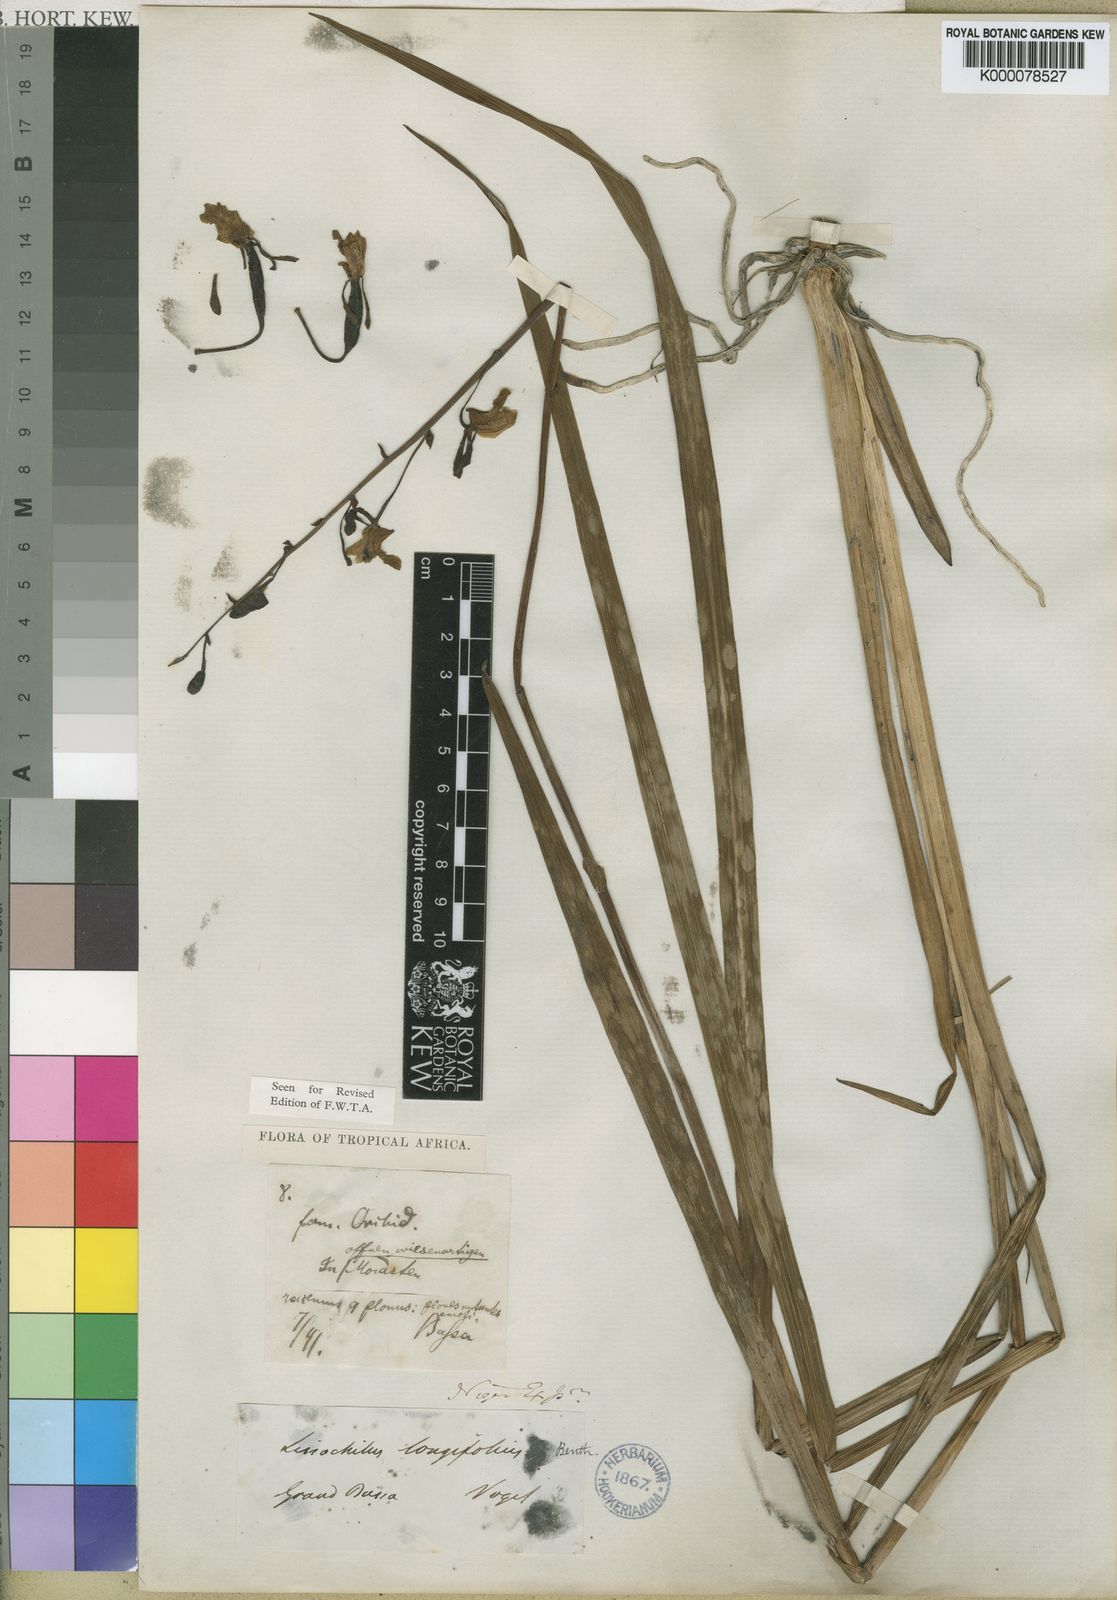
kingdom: Plantae
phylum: Tracheophyta
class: Liliopsida
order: Asparagales
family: Orchidaceae
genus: Eulophia
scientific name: Eulophia caricifolia
